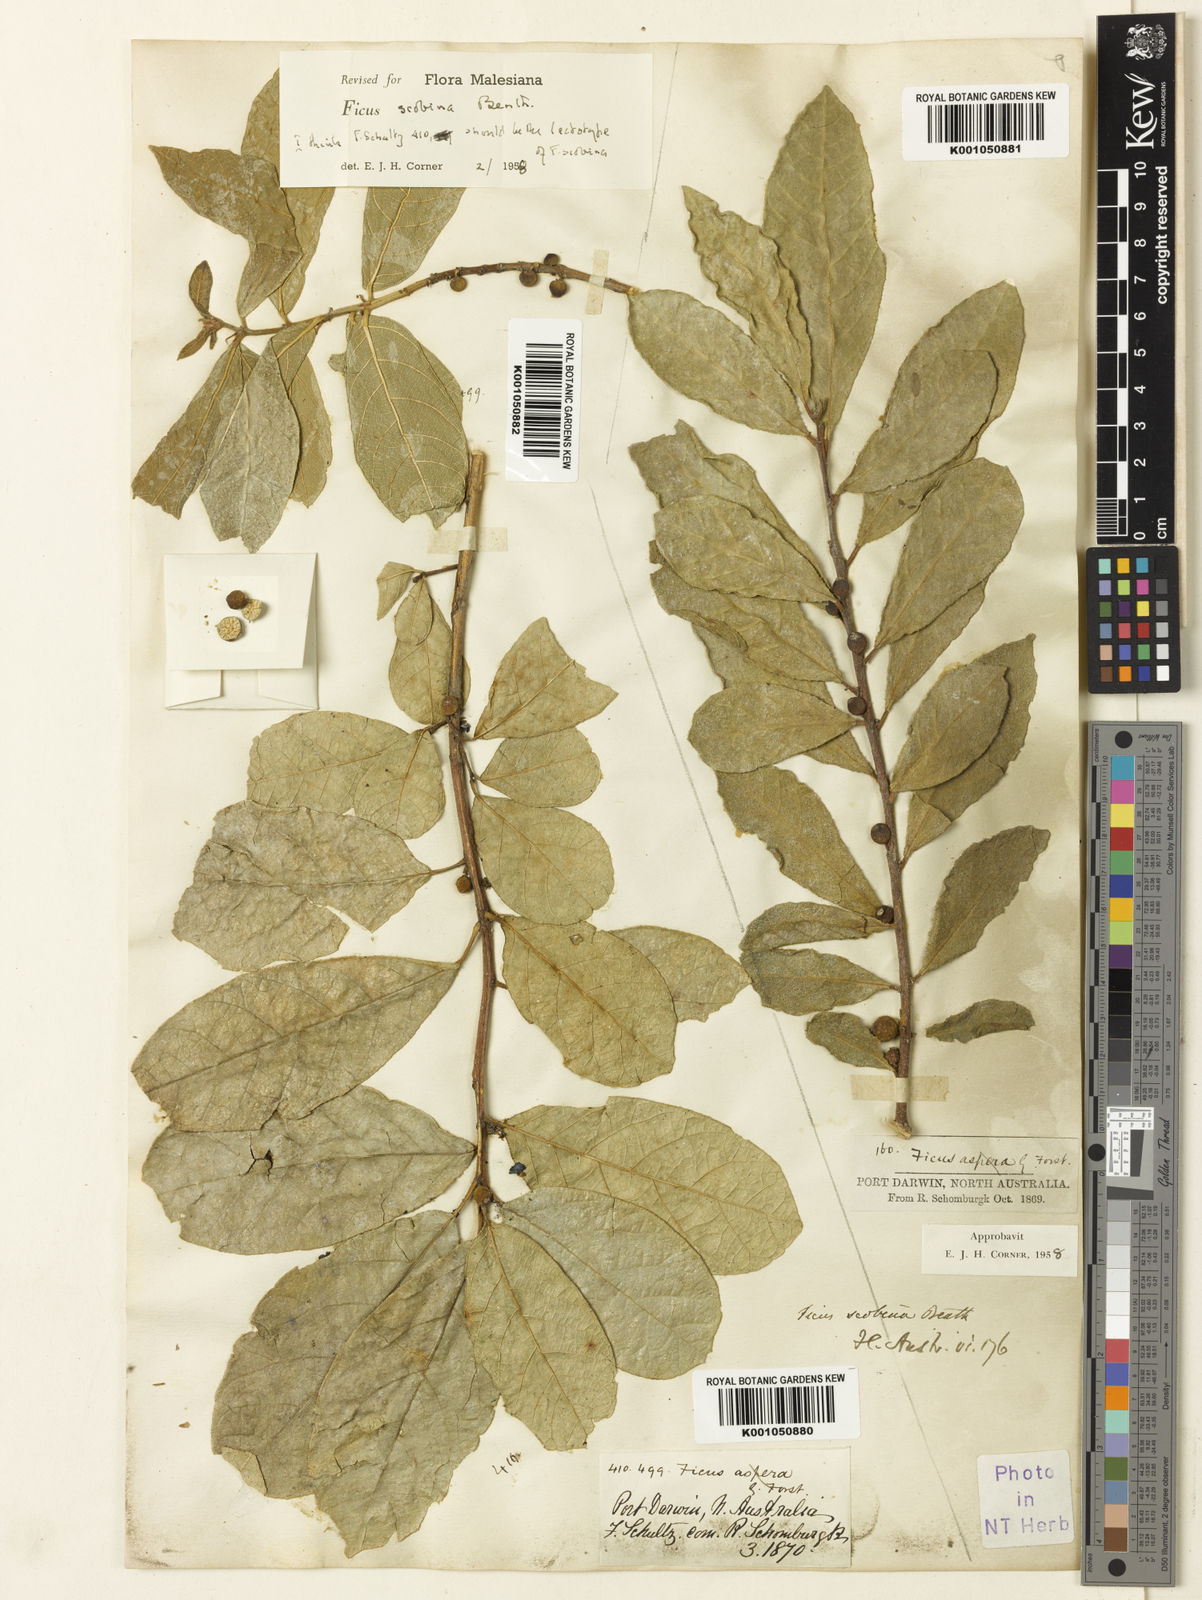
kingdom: Plantae
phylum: Tracheophyta
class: Magnoliopsida
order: Rosales
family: Moraceae
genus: Ficus
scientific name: Ficus scobina
